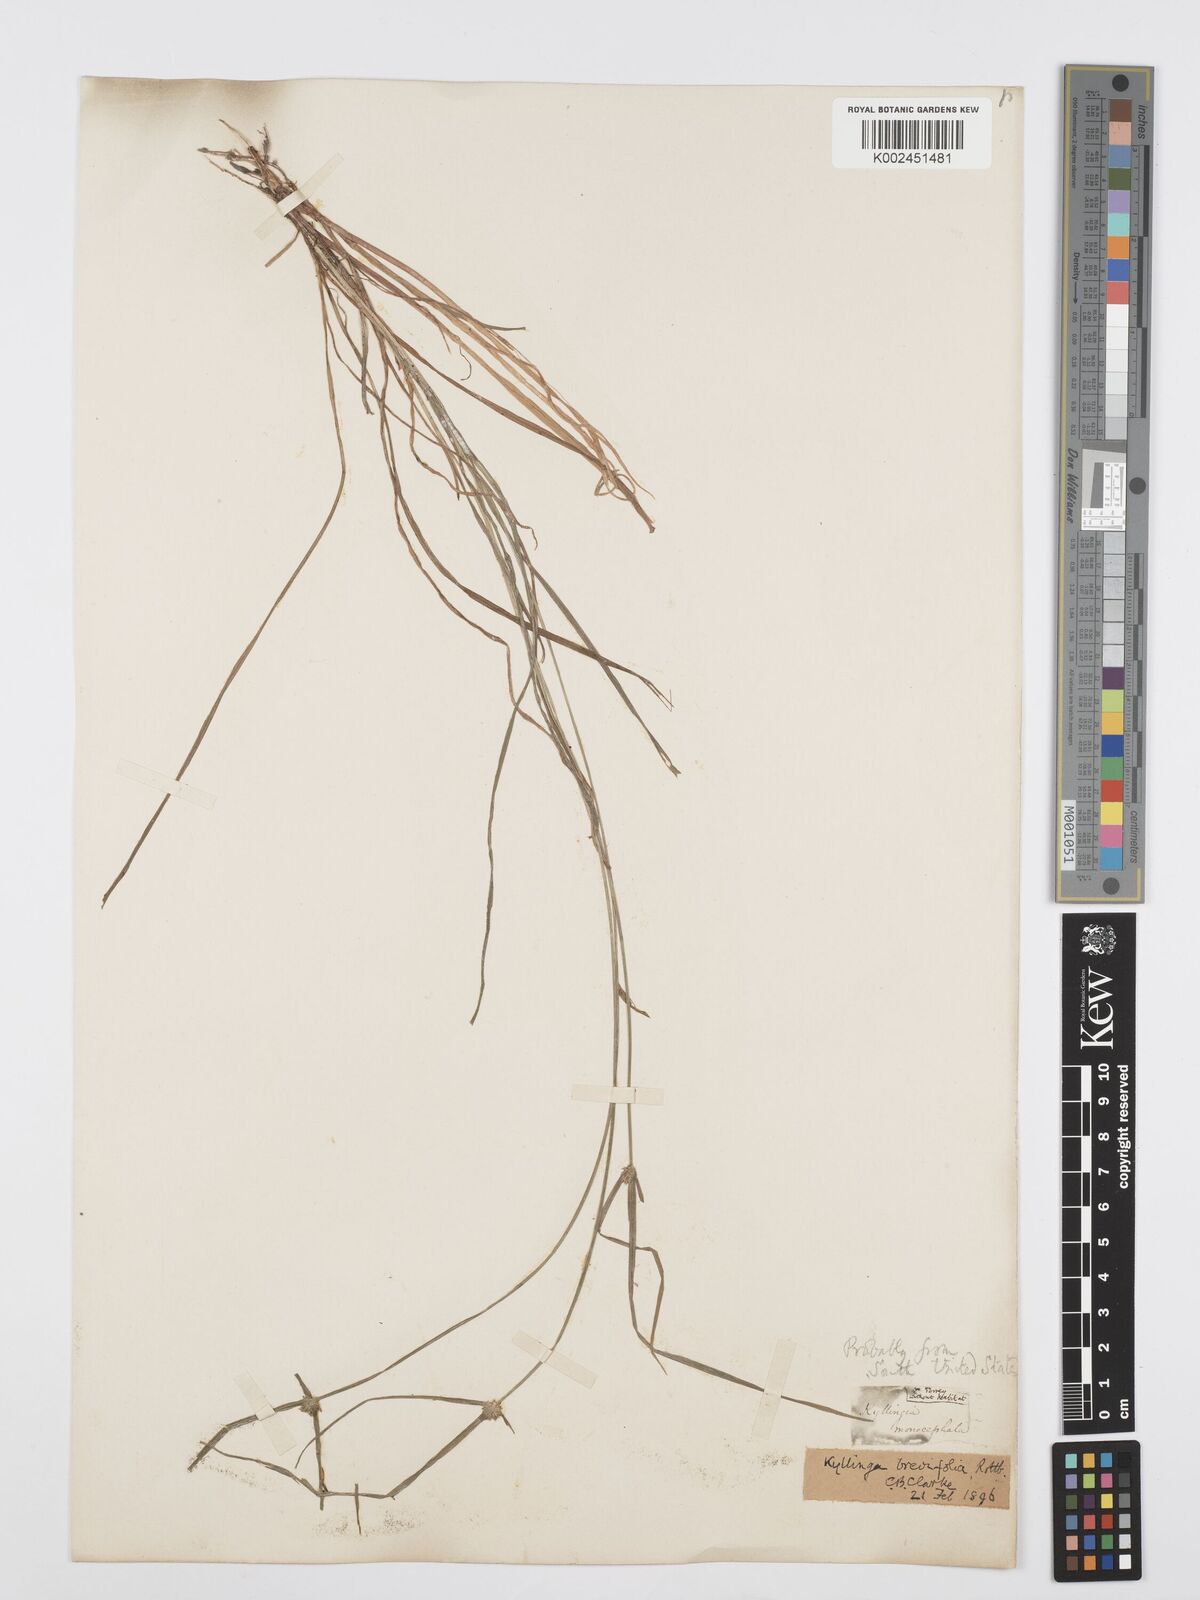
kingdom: Plantae
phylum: Tracheophyta
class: Liliopsida
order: Poales
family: Cyperaceae
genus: Cyperus
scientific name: Cyperus brevifolius
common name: Globe kyllinga
